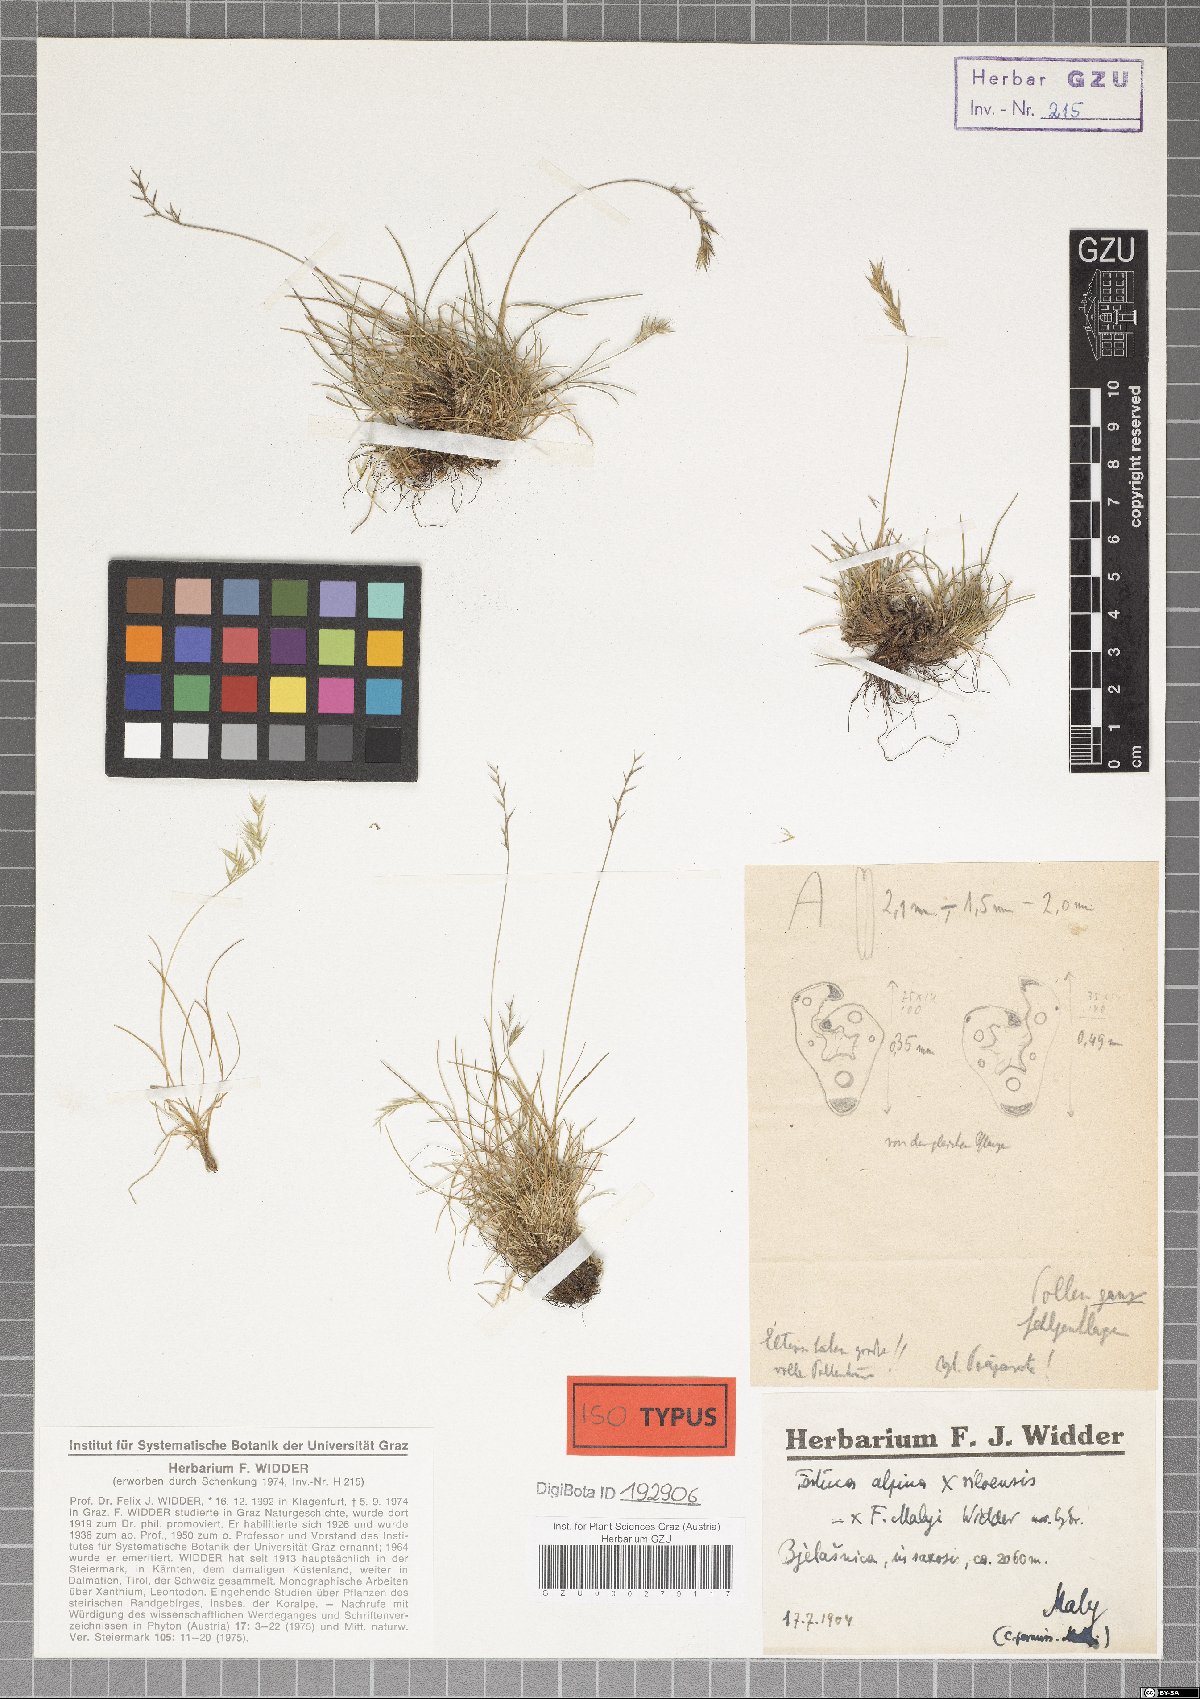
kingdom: Plantae
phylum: Tracheophyta
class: Liliopsida
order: Poales
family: Poaceae
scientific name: Poaceae
